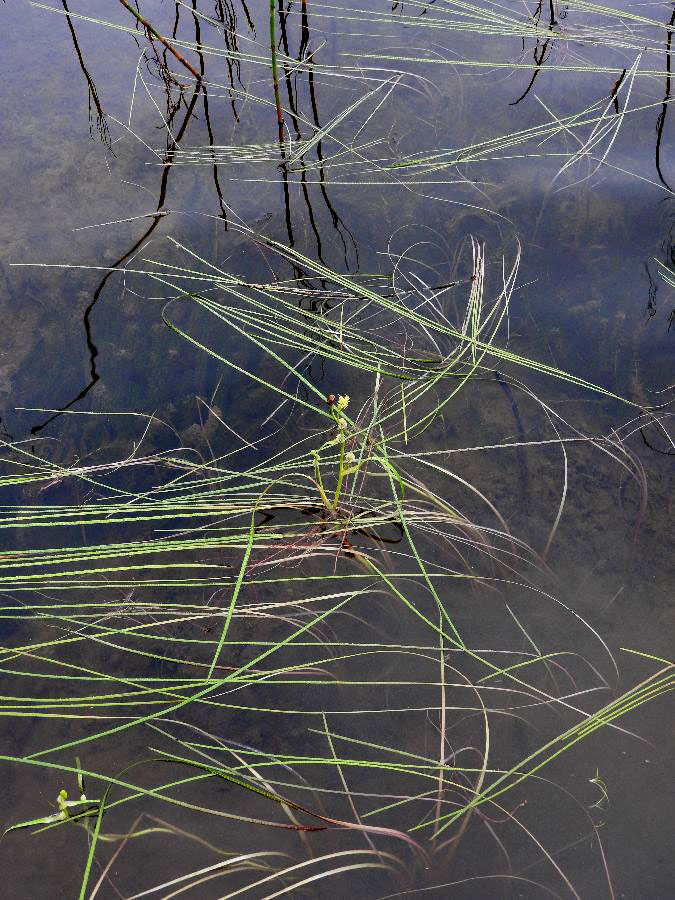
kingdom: Plantae
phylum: Tracheophyta
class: Liliopsida
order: Poales
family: Typhaceae
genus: Sparganium
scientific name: Sparganium gramineum
